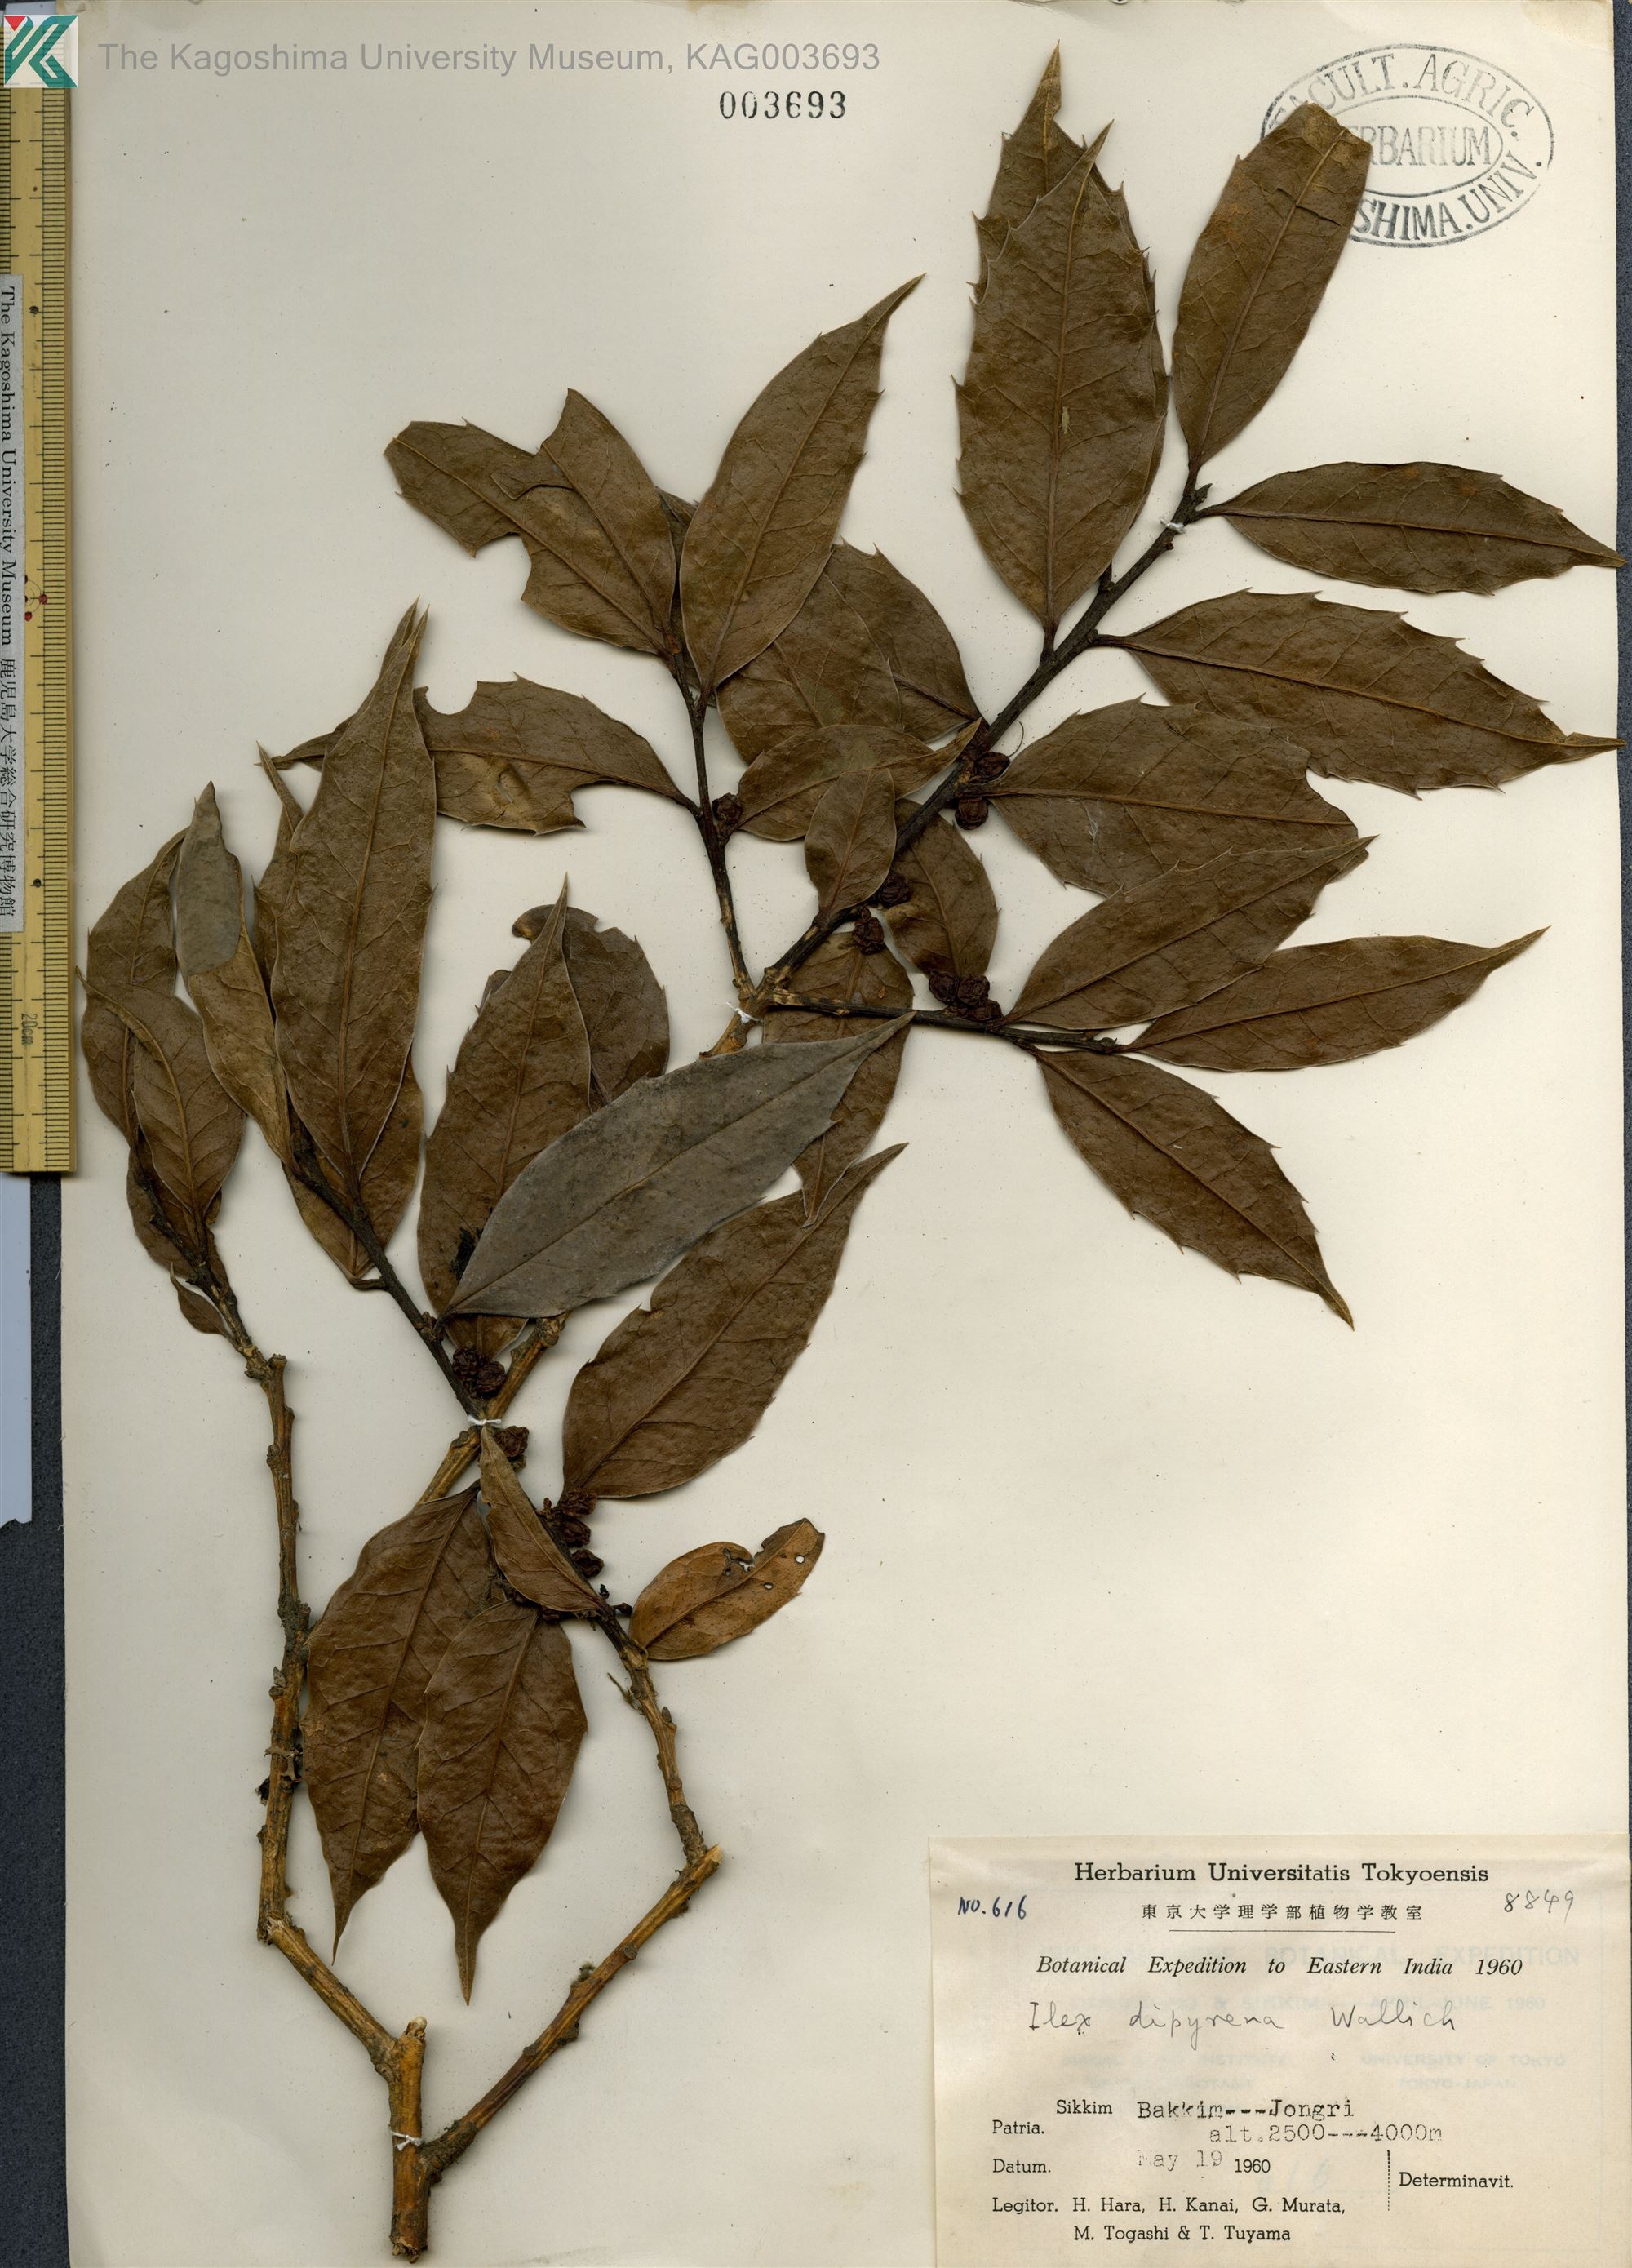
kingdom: Plantae
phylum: Tracheophyta
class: Magnoliopsida
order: Aquifoliales
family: Aquifoliaceae
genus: Ilex
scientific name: Ilex dipyrena
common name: Himalayan holly
